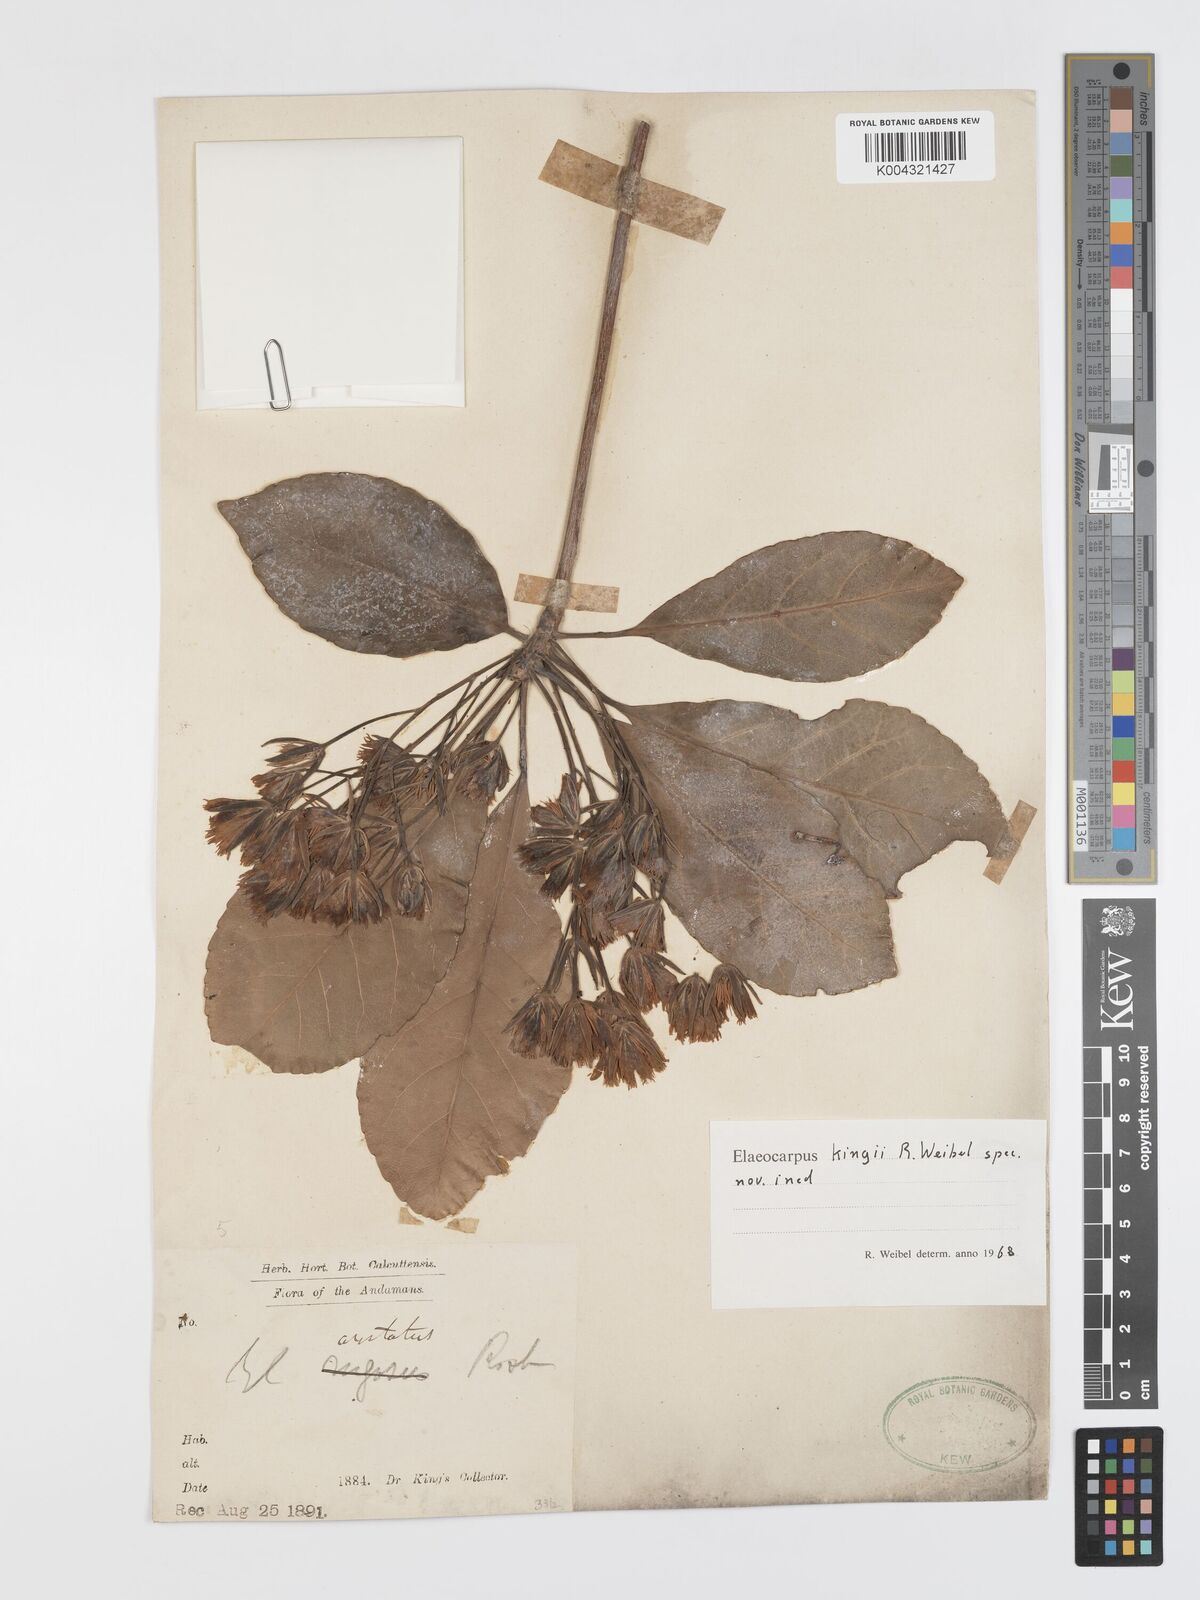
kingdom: Plantae
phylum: Tracheophyta
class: Magnoliopsida
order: Oxalidales
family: Elaeocarpaceae
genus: Elaeocarpus
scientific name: Elaeocarpus
